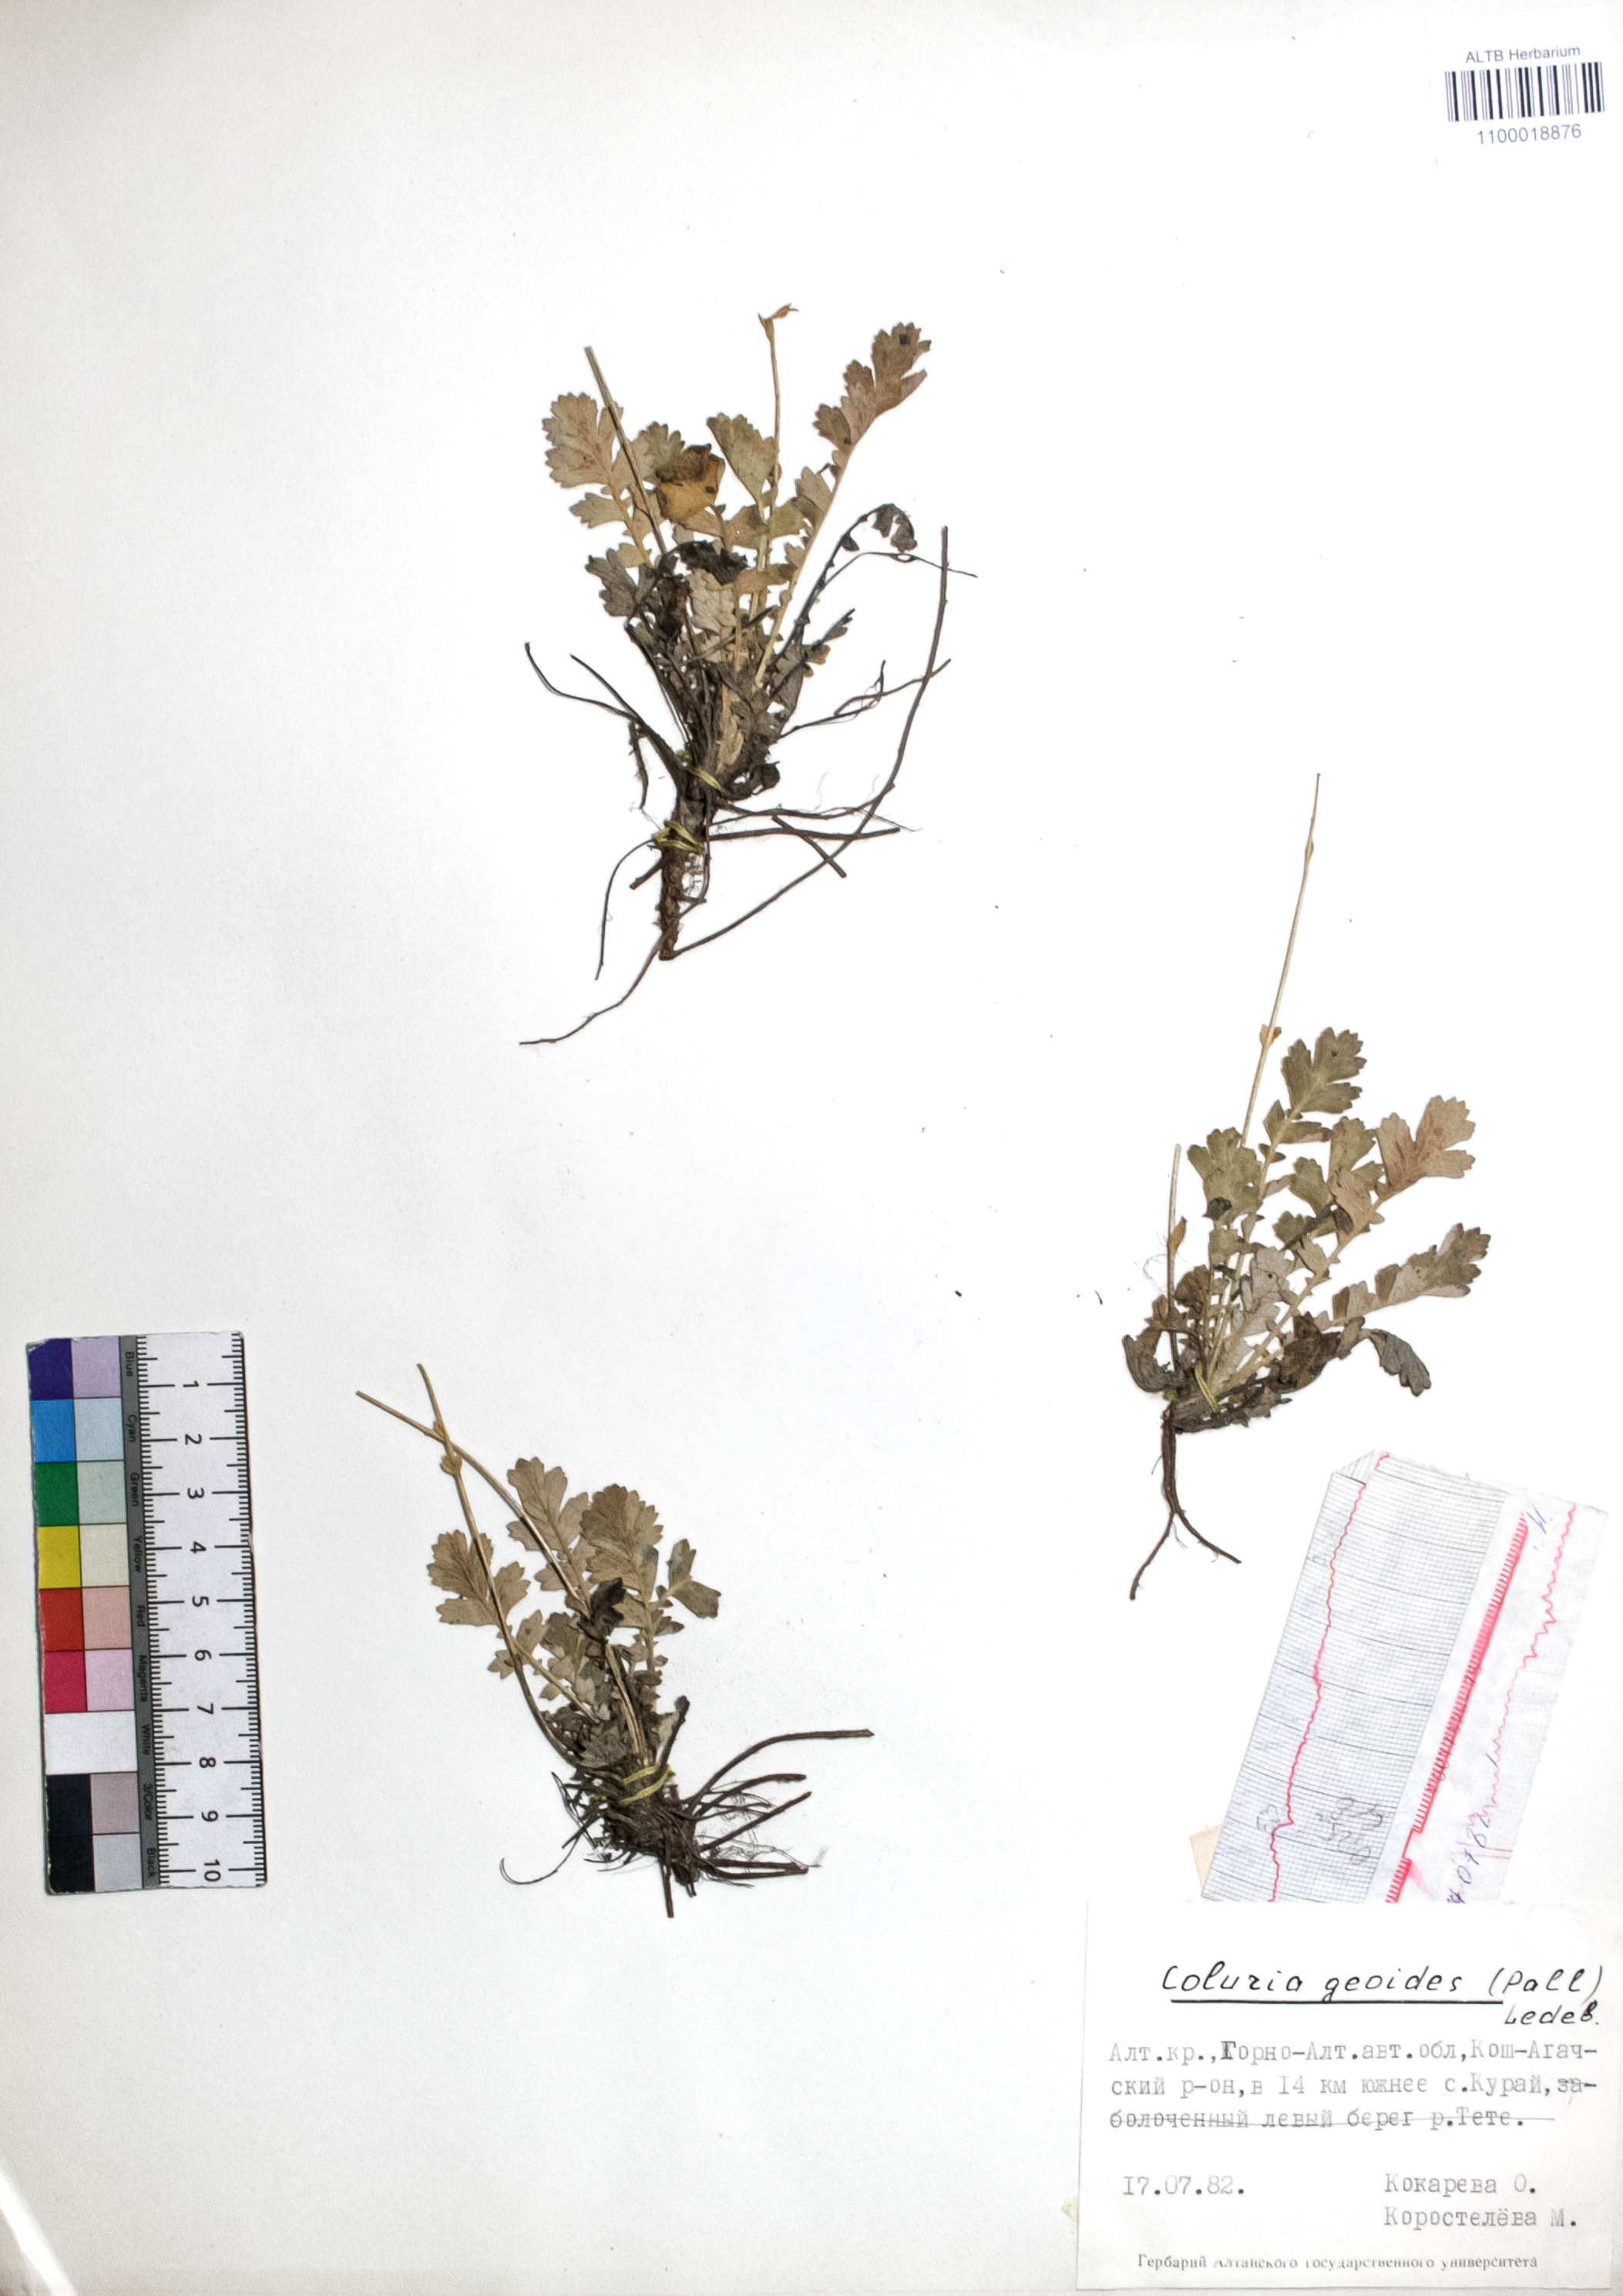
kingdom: Plantae
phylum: Tracheophyta
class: Magnoliopsida
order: Rosales
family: Rosaceae
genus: Geum
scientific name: Geum geoides
